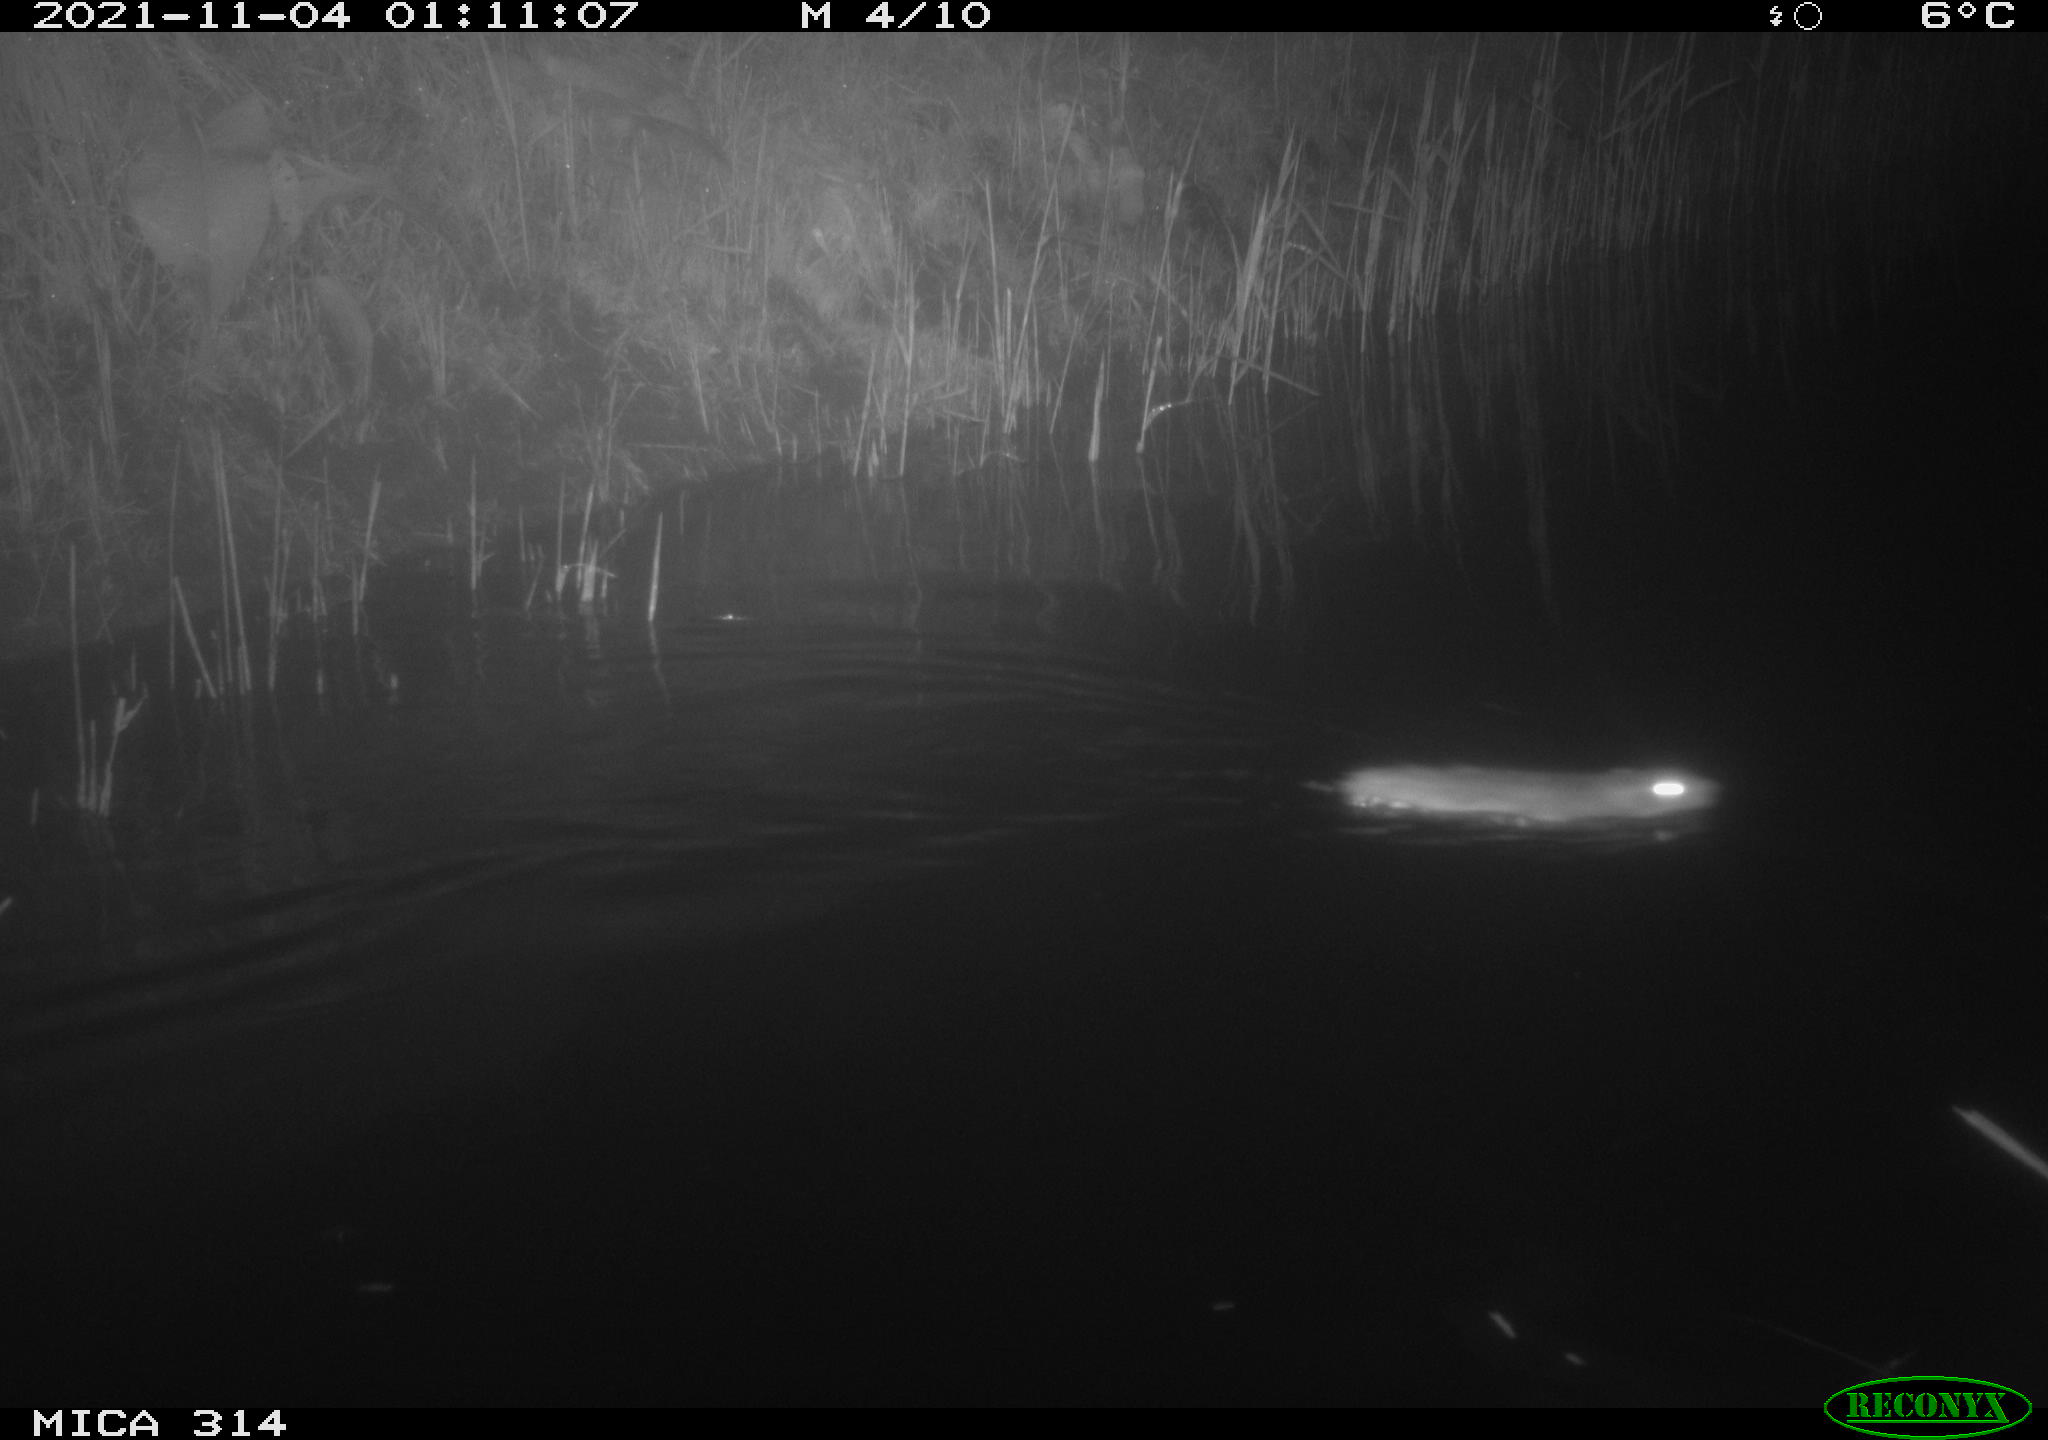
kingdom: Animalia
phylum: Chordata
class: Mammalia
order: Rodentia
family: Cricetidae
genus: Ondatra
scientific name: Ondatra zibethicus
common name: Muskrat
